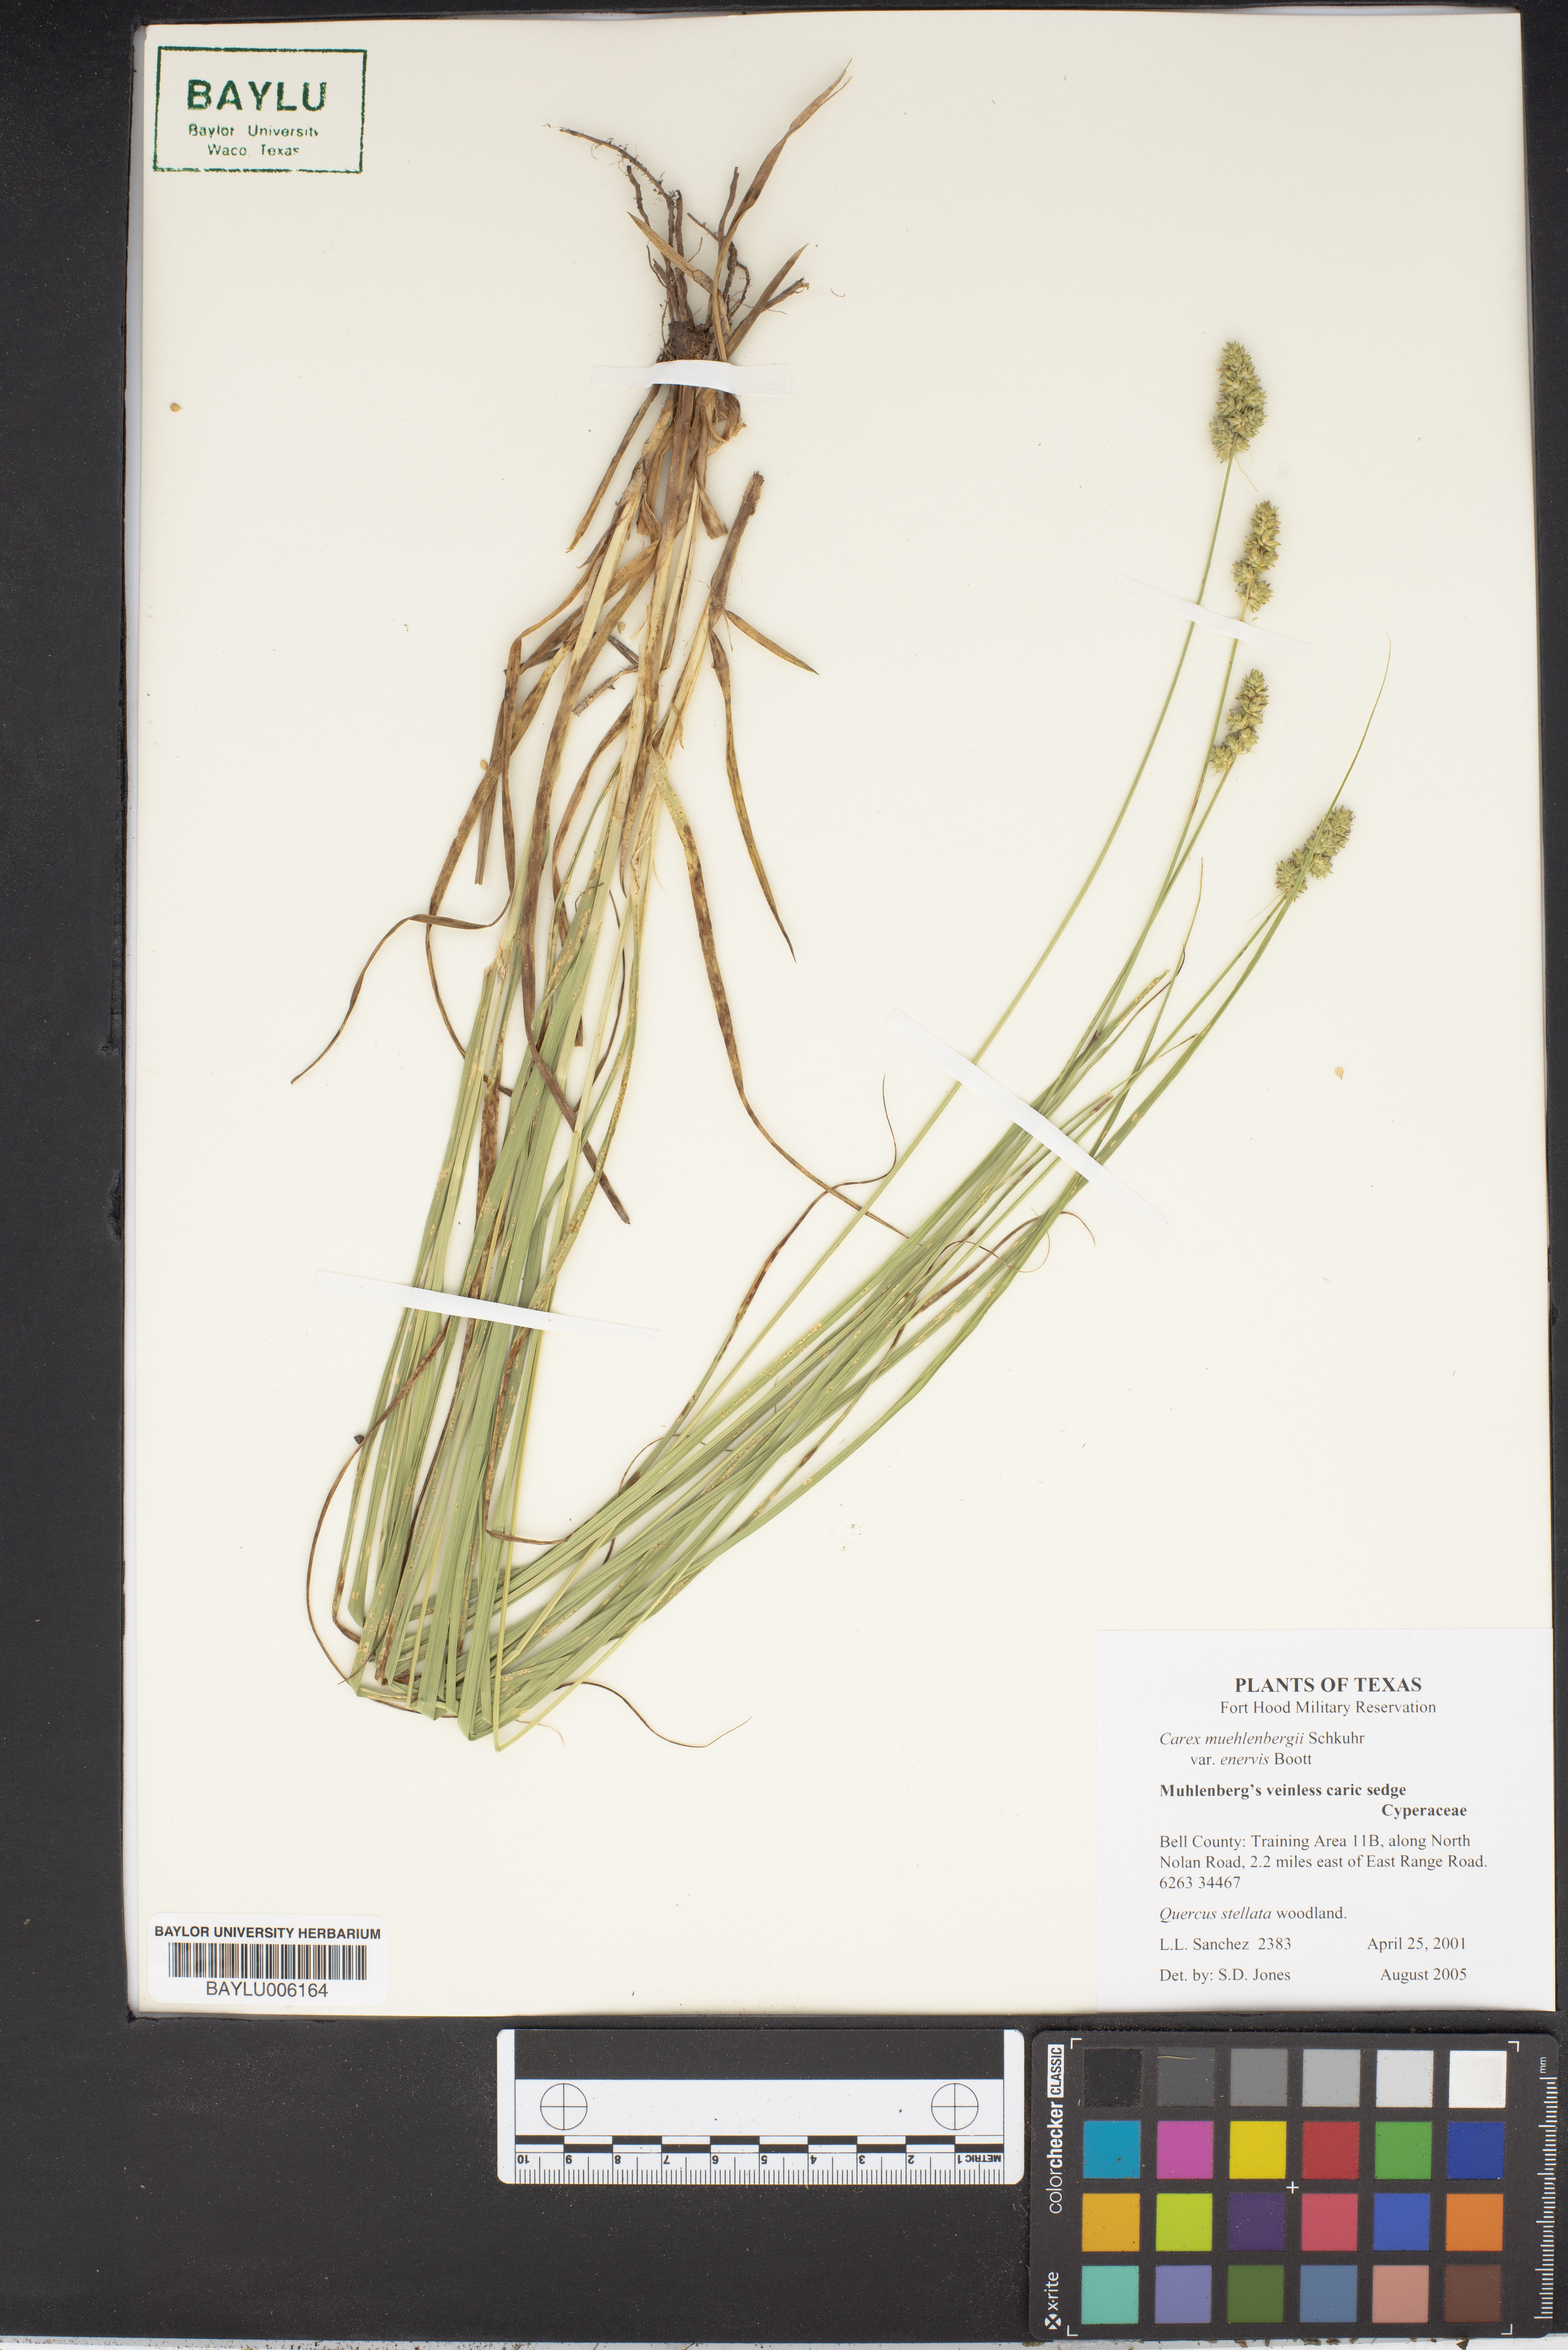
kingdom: Plantae
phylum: Tracheophyta
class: Liliopsida
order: Poales
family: Cyperaceae
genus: Carex
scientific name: Carex muehlenbergii
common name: Muhlenberg's bracted sedge
